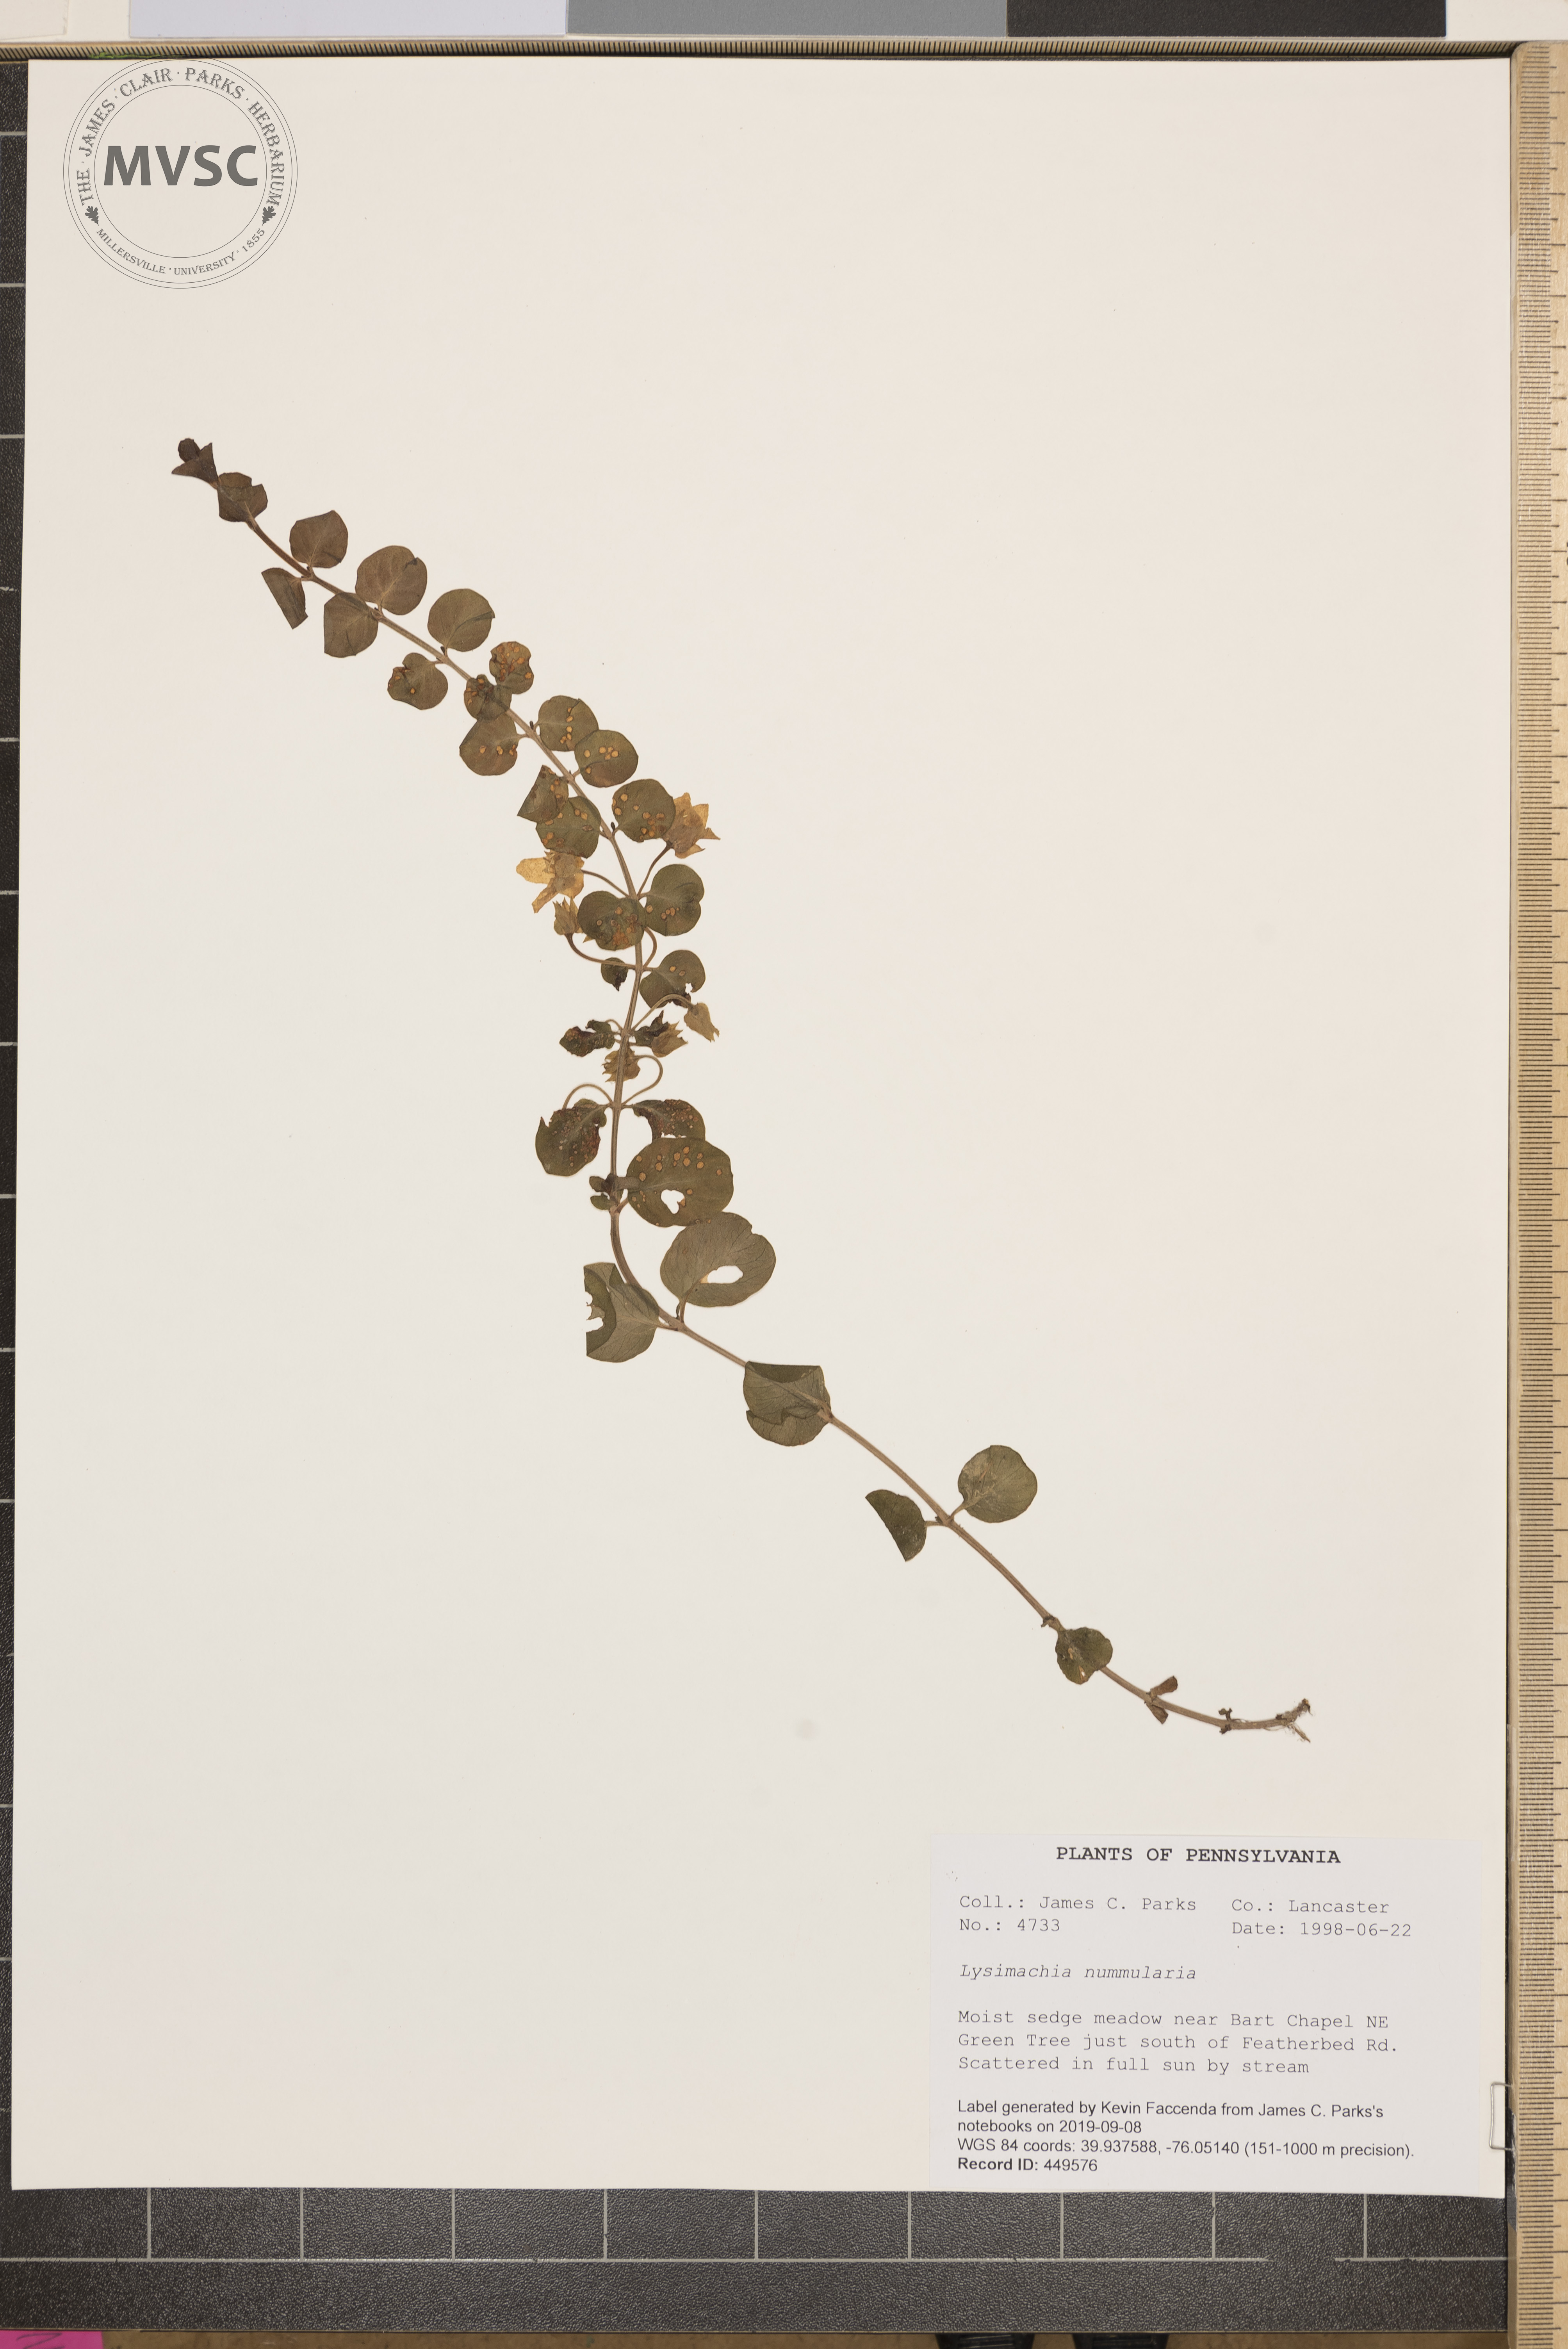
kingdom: Plantae
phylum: Tracheophyta
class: Magnoliopsida
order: Ericales
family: Primulaceae
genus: Lysimachia
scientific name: Lysimachia nummularia
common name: Moneywort
